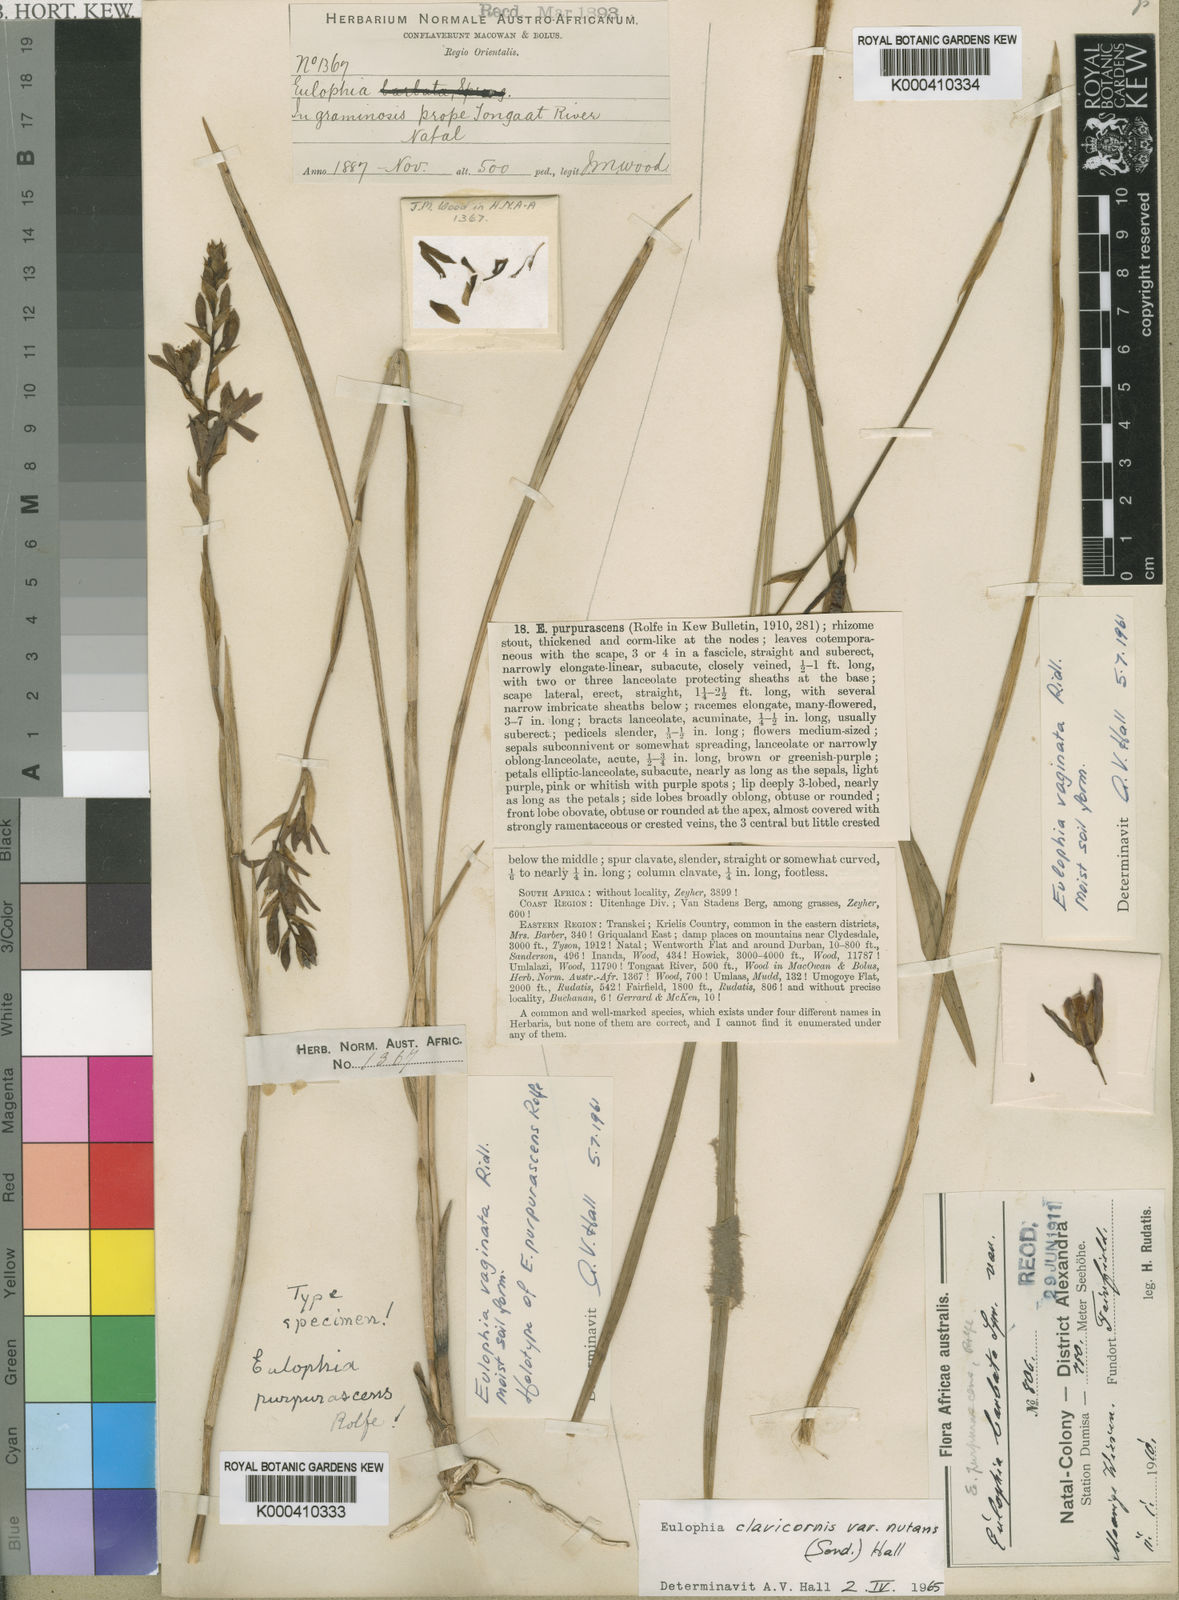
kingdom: Plantae
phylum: Tracheophyta
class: Liliopsida
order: Asparagales
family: Orchidaceae
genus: Eulophia
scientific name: Eulophia hians
